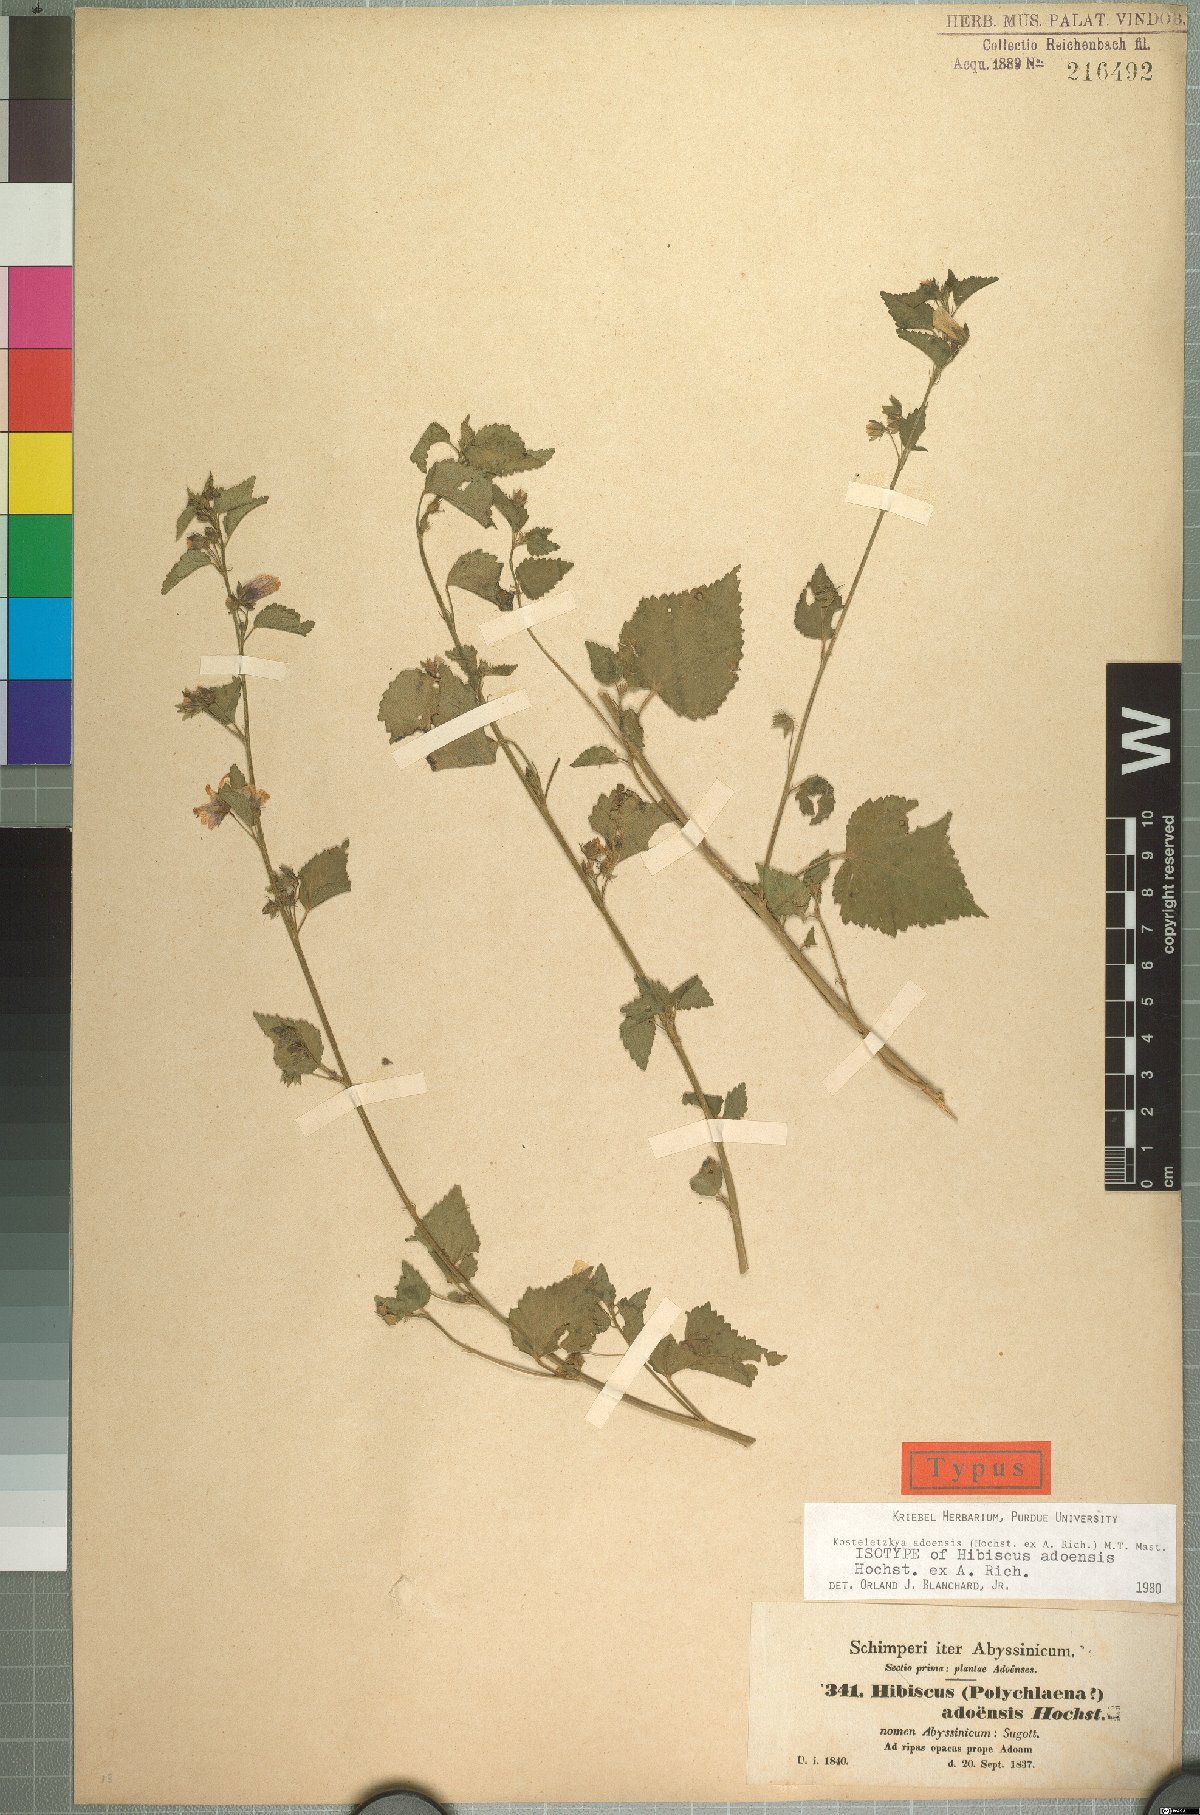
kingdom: Plantae
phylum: Tracheophyta
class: Magnoliopsida
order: Malvales
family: Malvaceae
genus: Kosteletzkya
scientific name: Kosteletzkya adoensis
